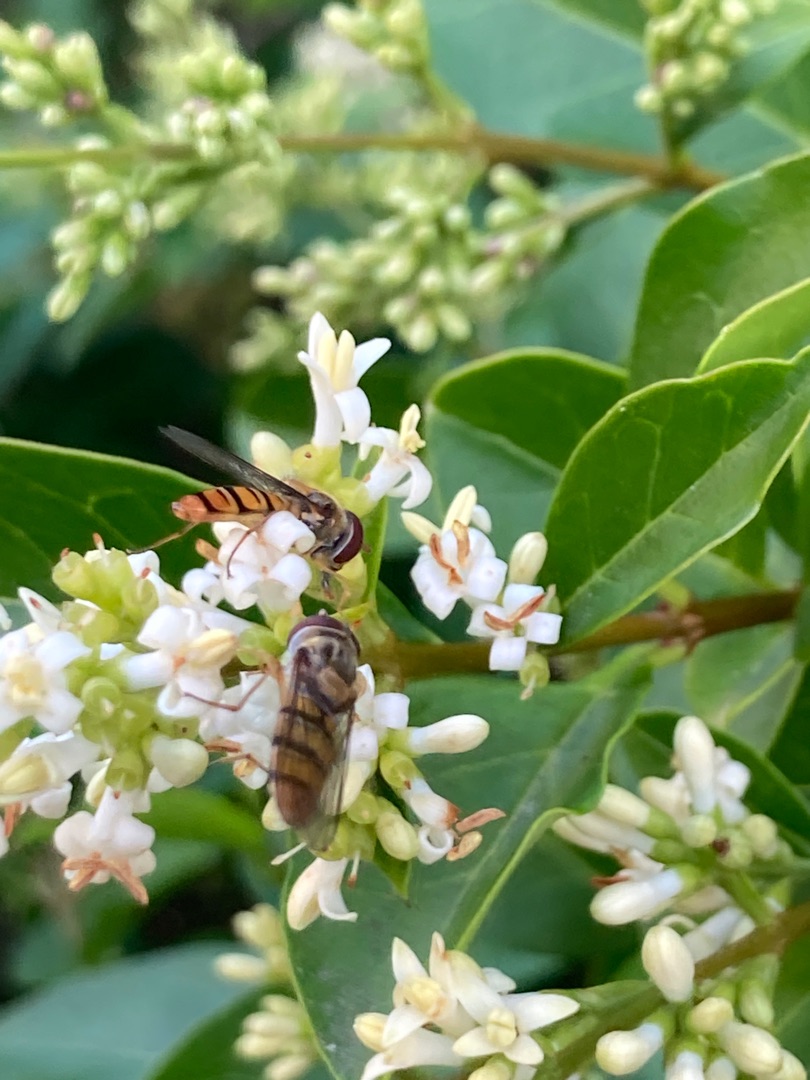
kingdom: Animalia
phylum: Arthropoda
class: Insecta
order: Diptera
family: Syrphidae
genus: Episyrphus
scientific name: Episyrphus balteatus
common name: Dobbeltbåndet svirreflue
